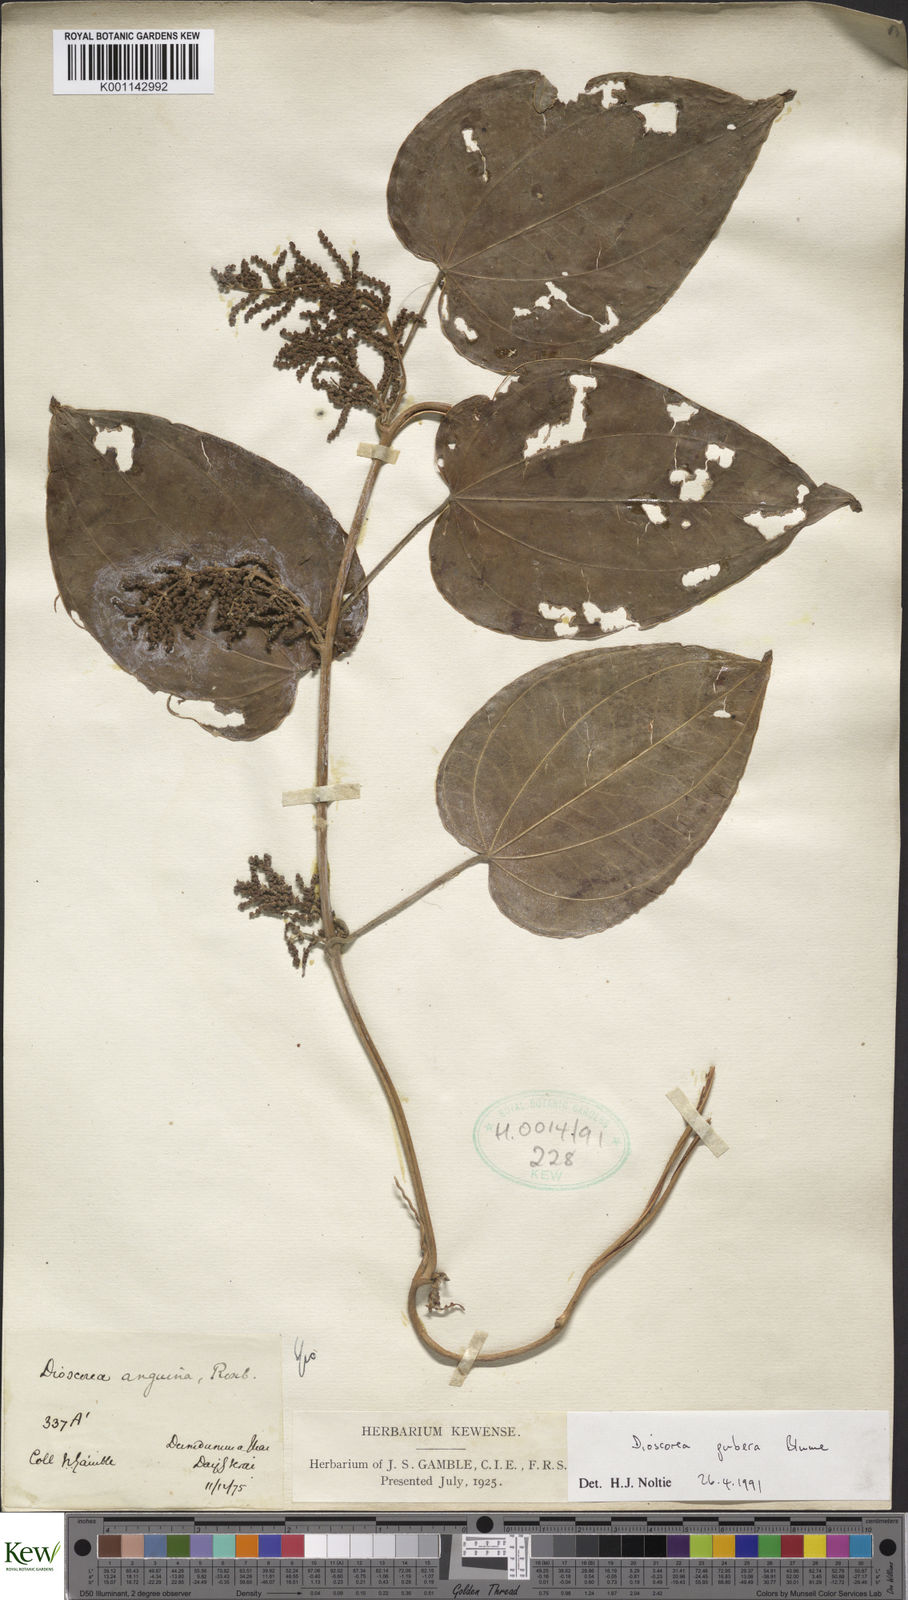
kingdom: Plantae
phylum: Tracheophyta
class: Liliopsida
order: Dioscoreales
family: Dioscoreaceae
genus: Dioscorea
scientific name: Dioscorea pubera
